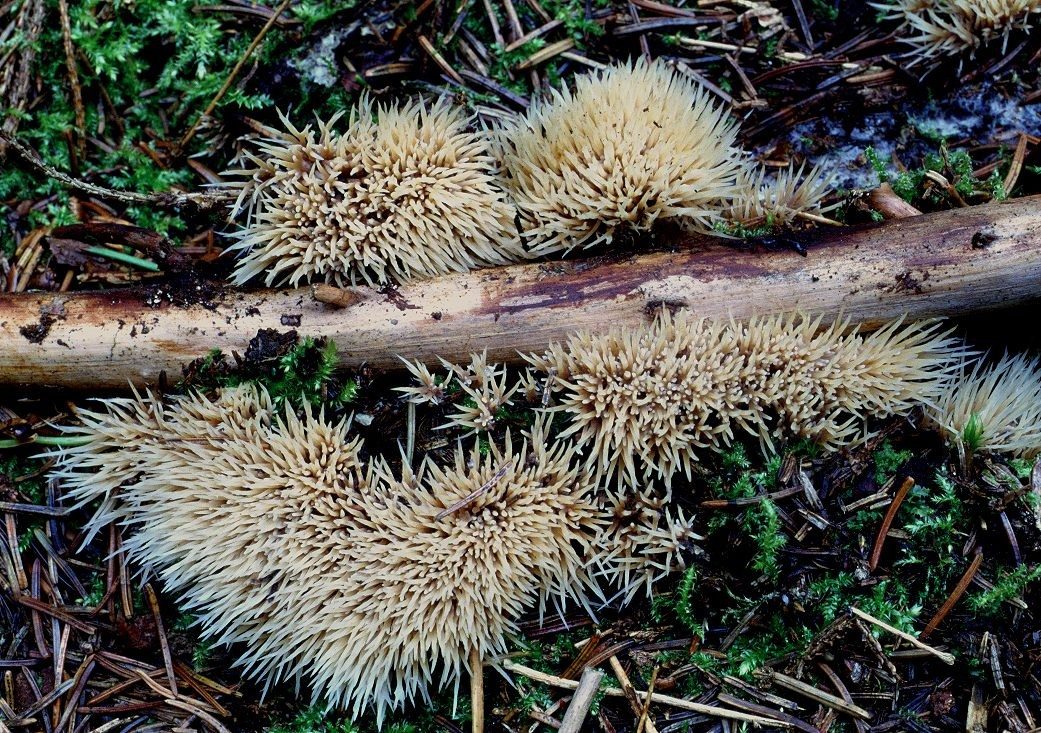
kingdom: Fungi
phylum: Basidiomycota
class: Agaricomycetes
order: Agaricales
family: Pterulaceae
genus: Pterula
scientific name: Pterula multifida
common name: busket fjerkølle
